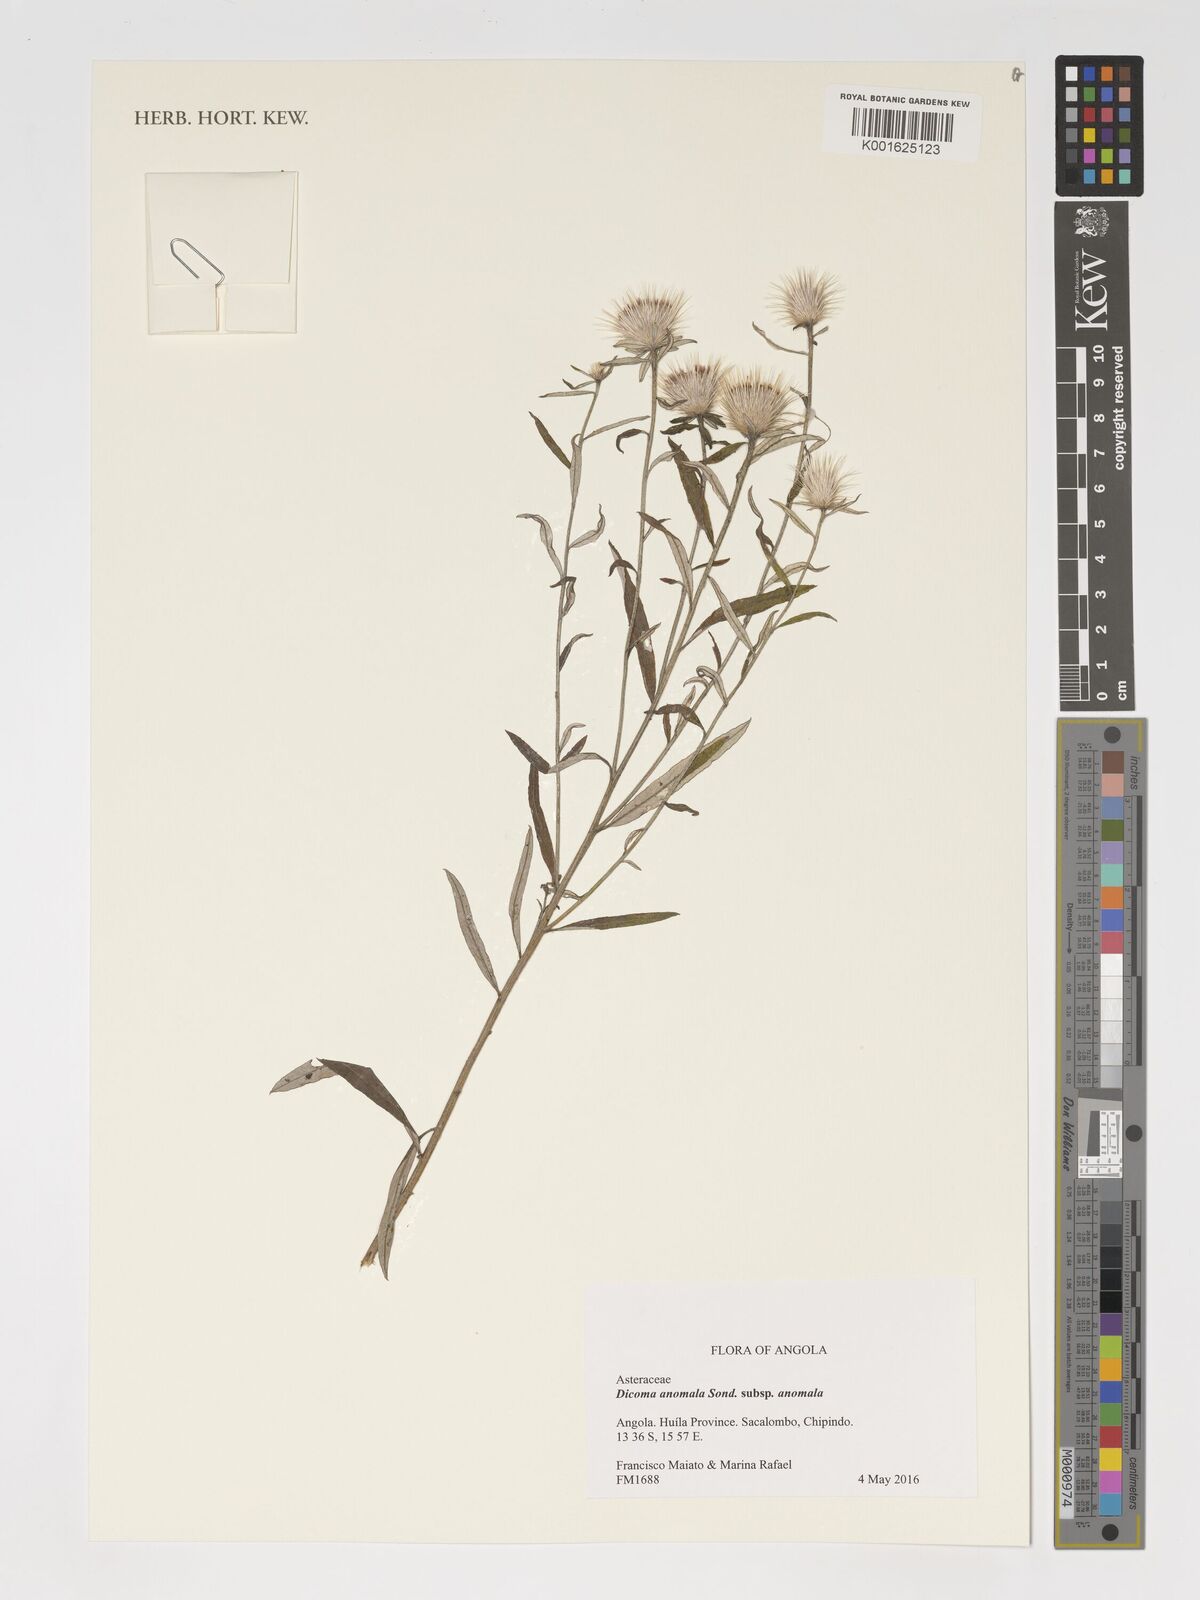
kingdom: Plantae
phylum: Tracheophyta
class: Magnoliopsida
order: Asterales
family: Asteraceae
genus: Dicoma
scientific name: Dicoma anomala
